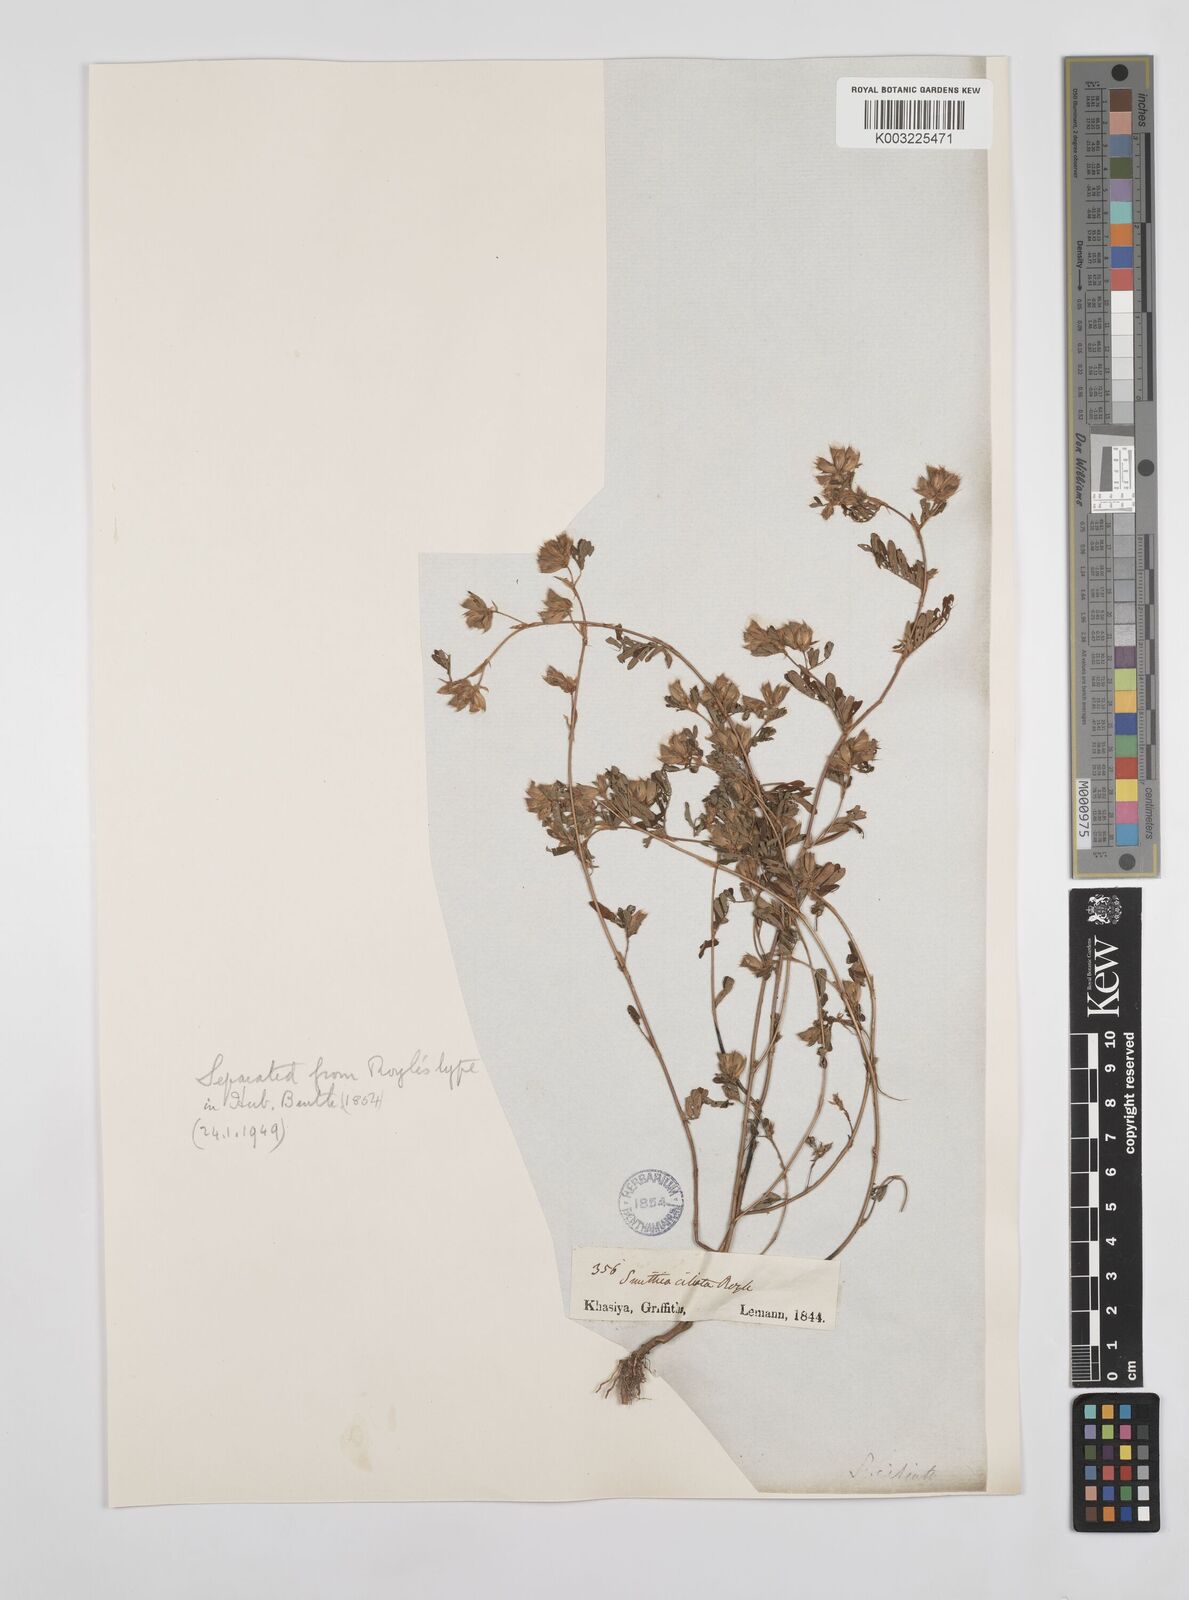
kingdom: Plantae
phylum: Tracheophyta
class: Magnoliopsida
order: Fabales
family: Fabaceae
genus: Smithia
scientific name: Smithia ciliata
